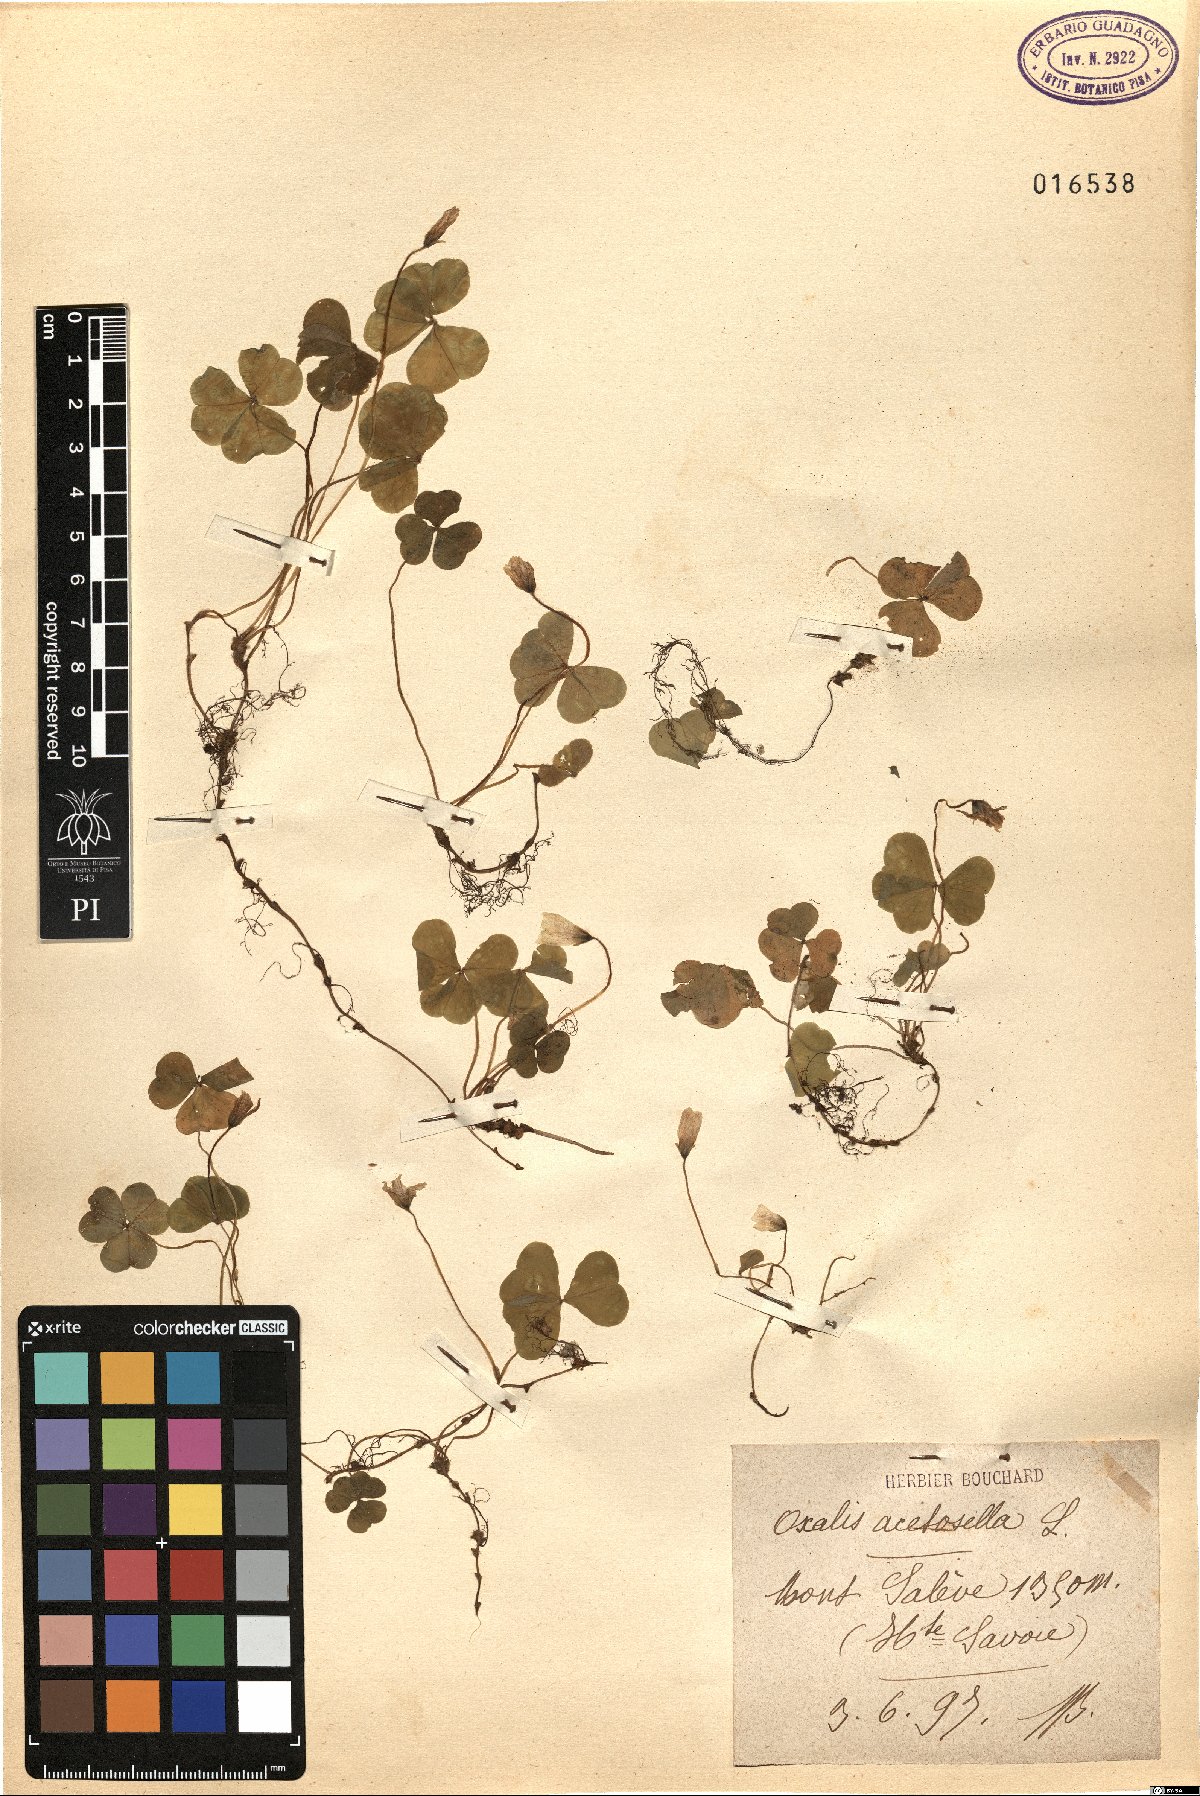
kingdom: Plantae
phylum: Tracheophyta
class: Magnoliopsida
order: Oxalidales
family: Oxalidaceae
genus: Oxalis
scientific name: Oxalis acetosella
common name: Wood-sorrel
